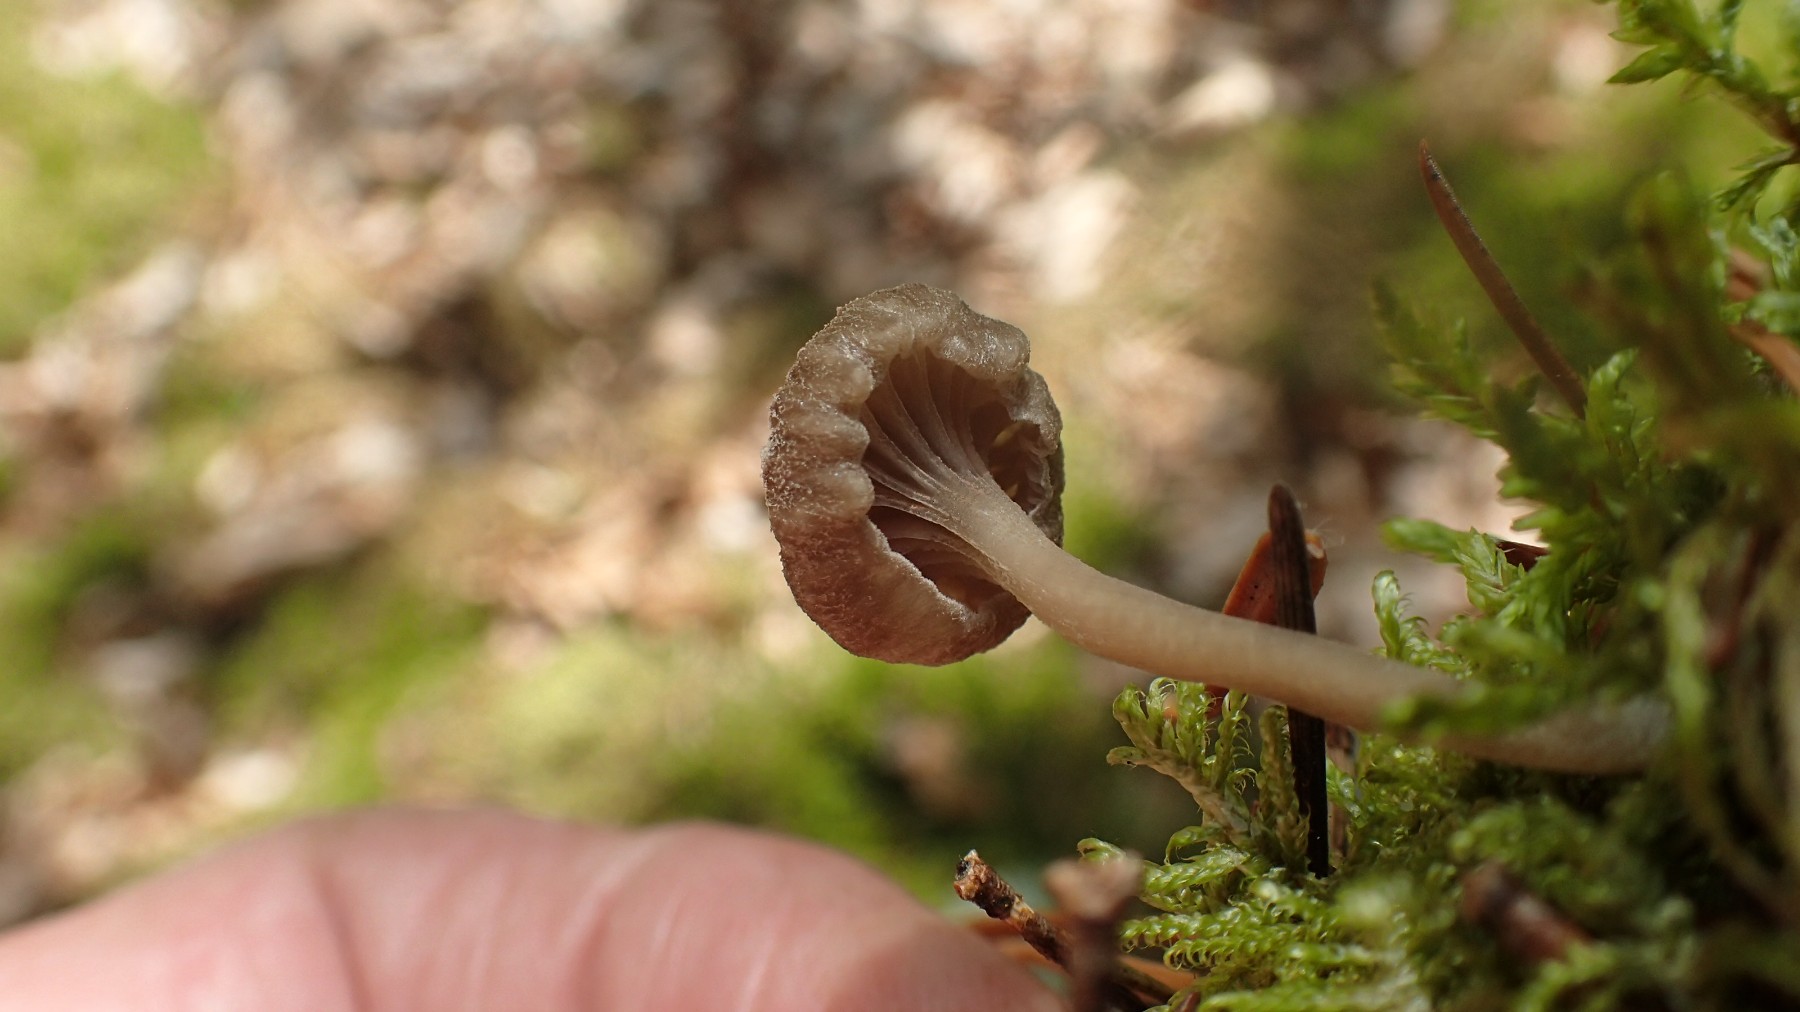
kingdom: Fungi
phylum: Basidiomycota
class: Agaricomycetes
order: Agaricales
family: Entolomataceae
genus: Entoloma
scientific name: Entoloma
